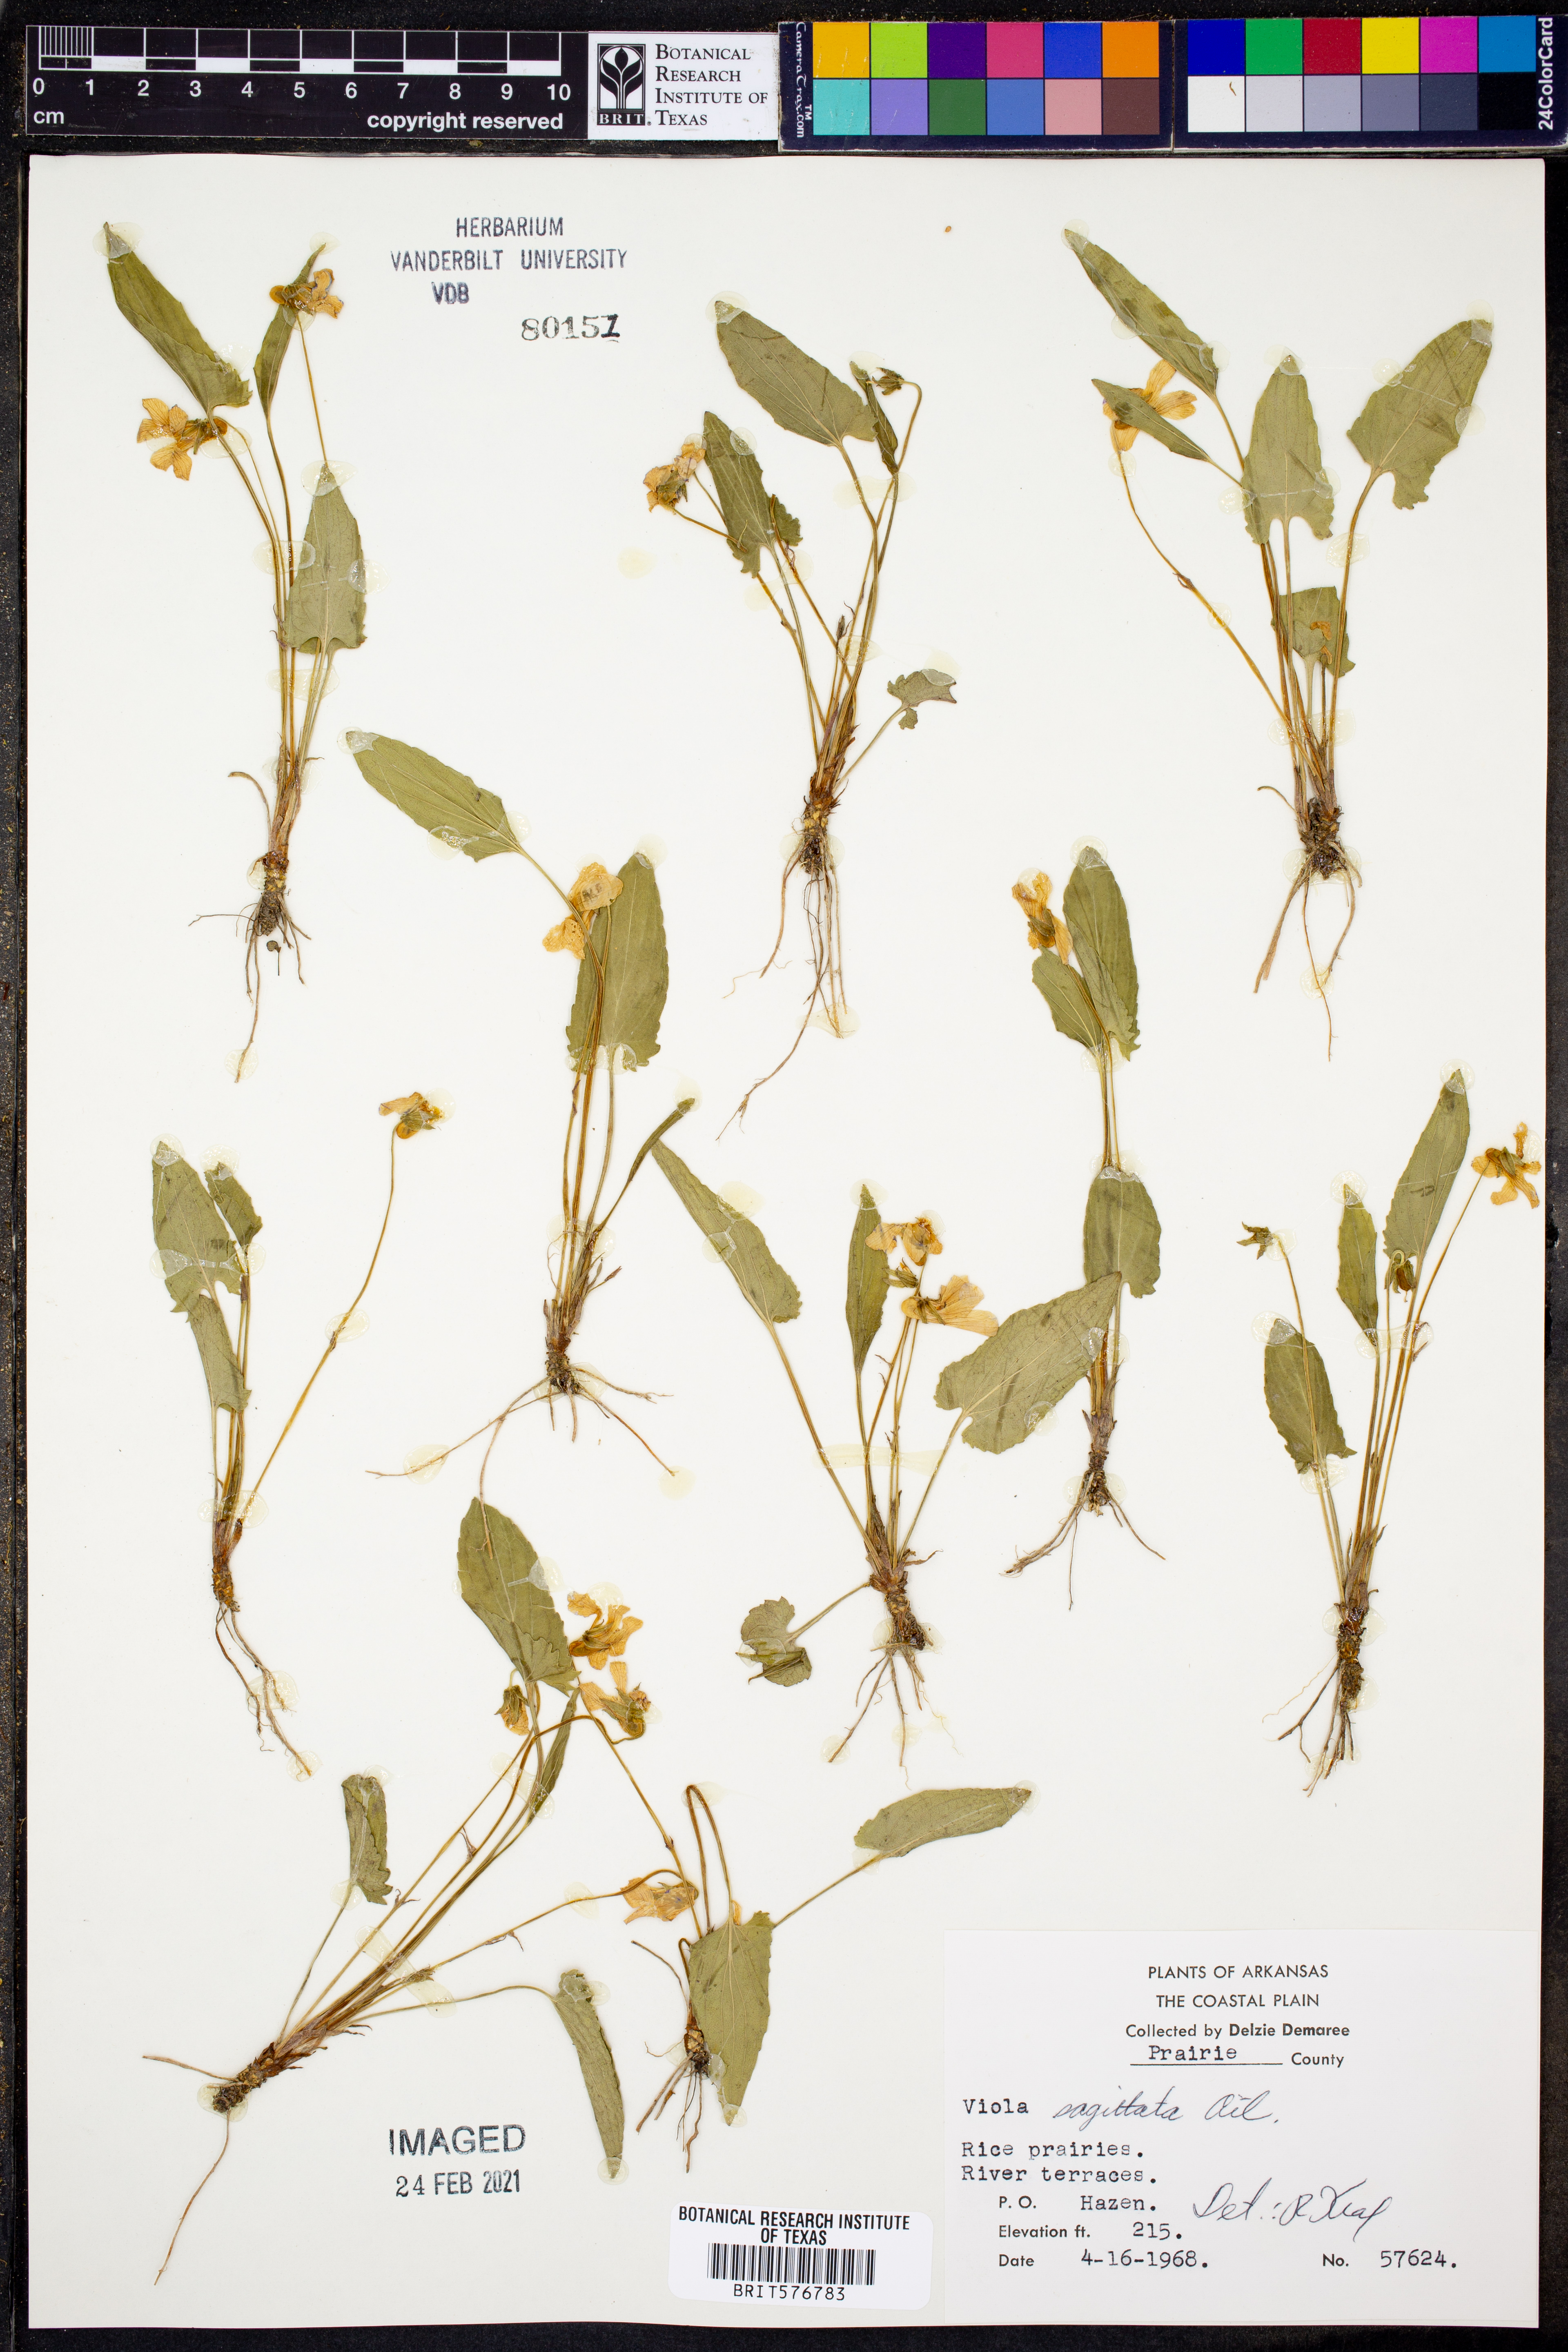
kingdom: Plantae
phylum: Tracheophyta
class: Magnoliopsida
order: Malpighiales
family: Violaceae
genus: Viola
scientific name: Viola sagittata
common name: Arrowhead violet
